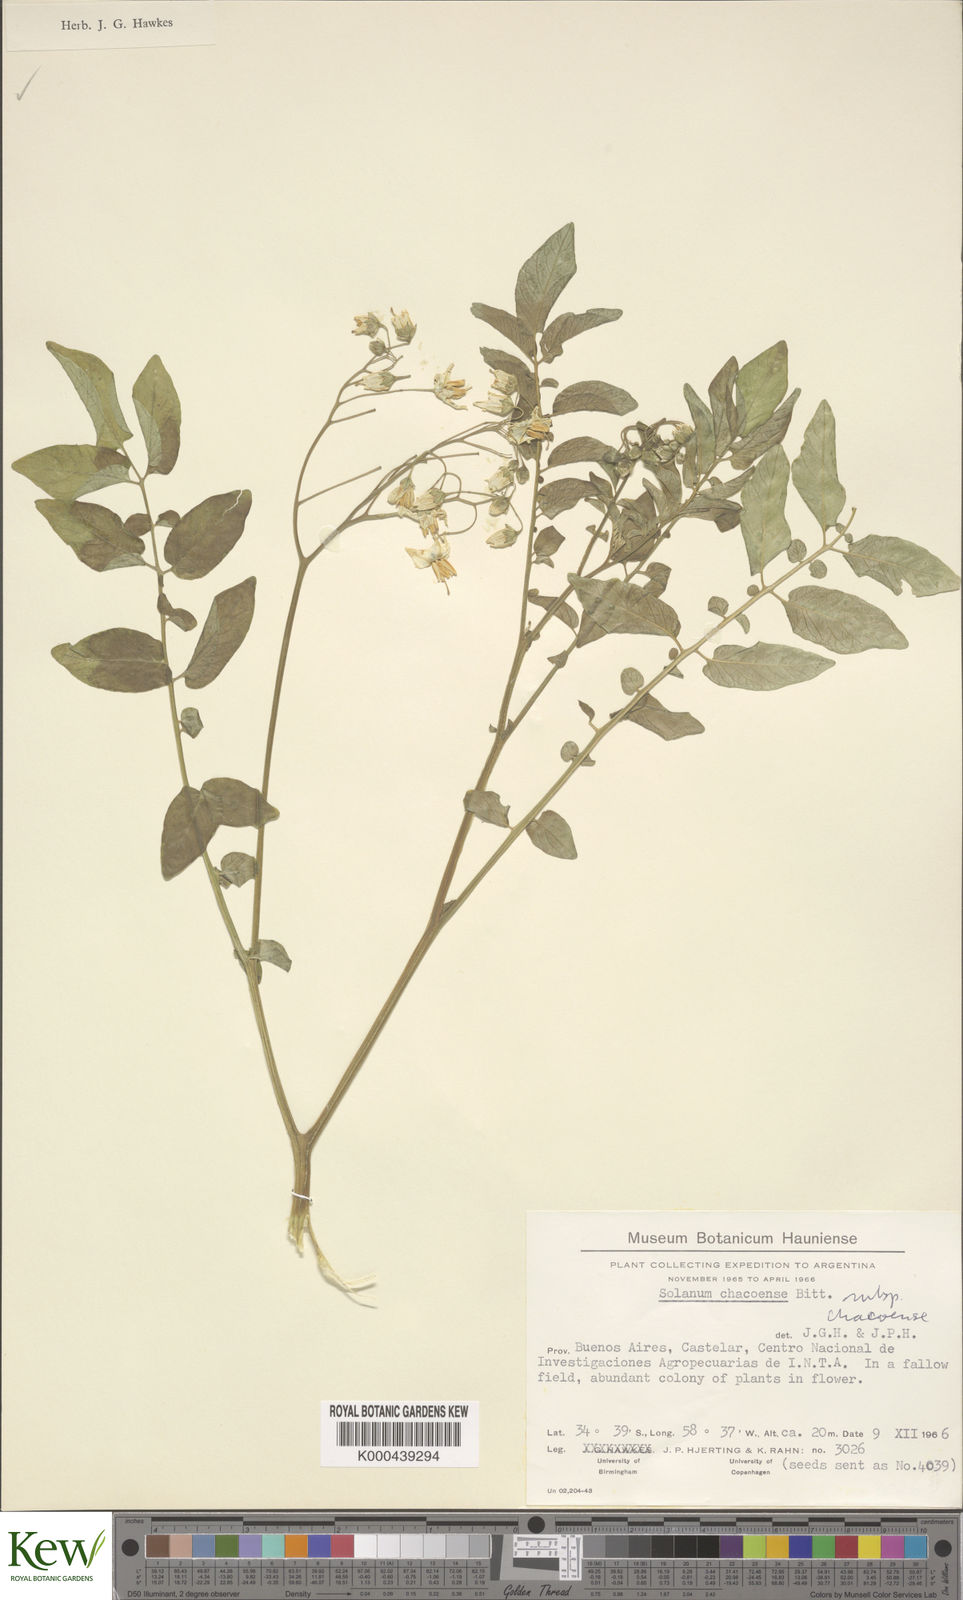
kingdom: Plantae
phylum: Tracheophyta
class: Magnoliopsida
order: Solanales
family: Solanaceae
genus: Solanum
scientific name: Solanum chacoense
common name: Chaco potato
